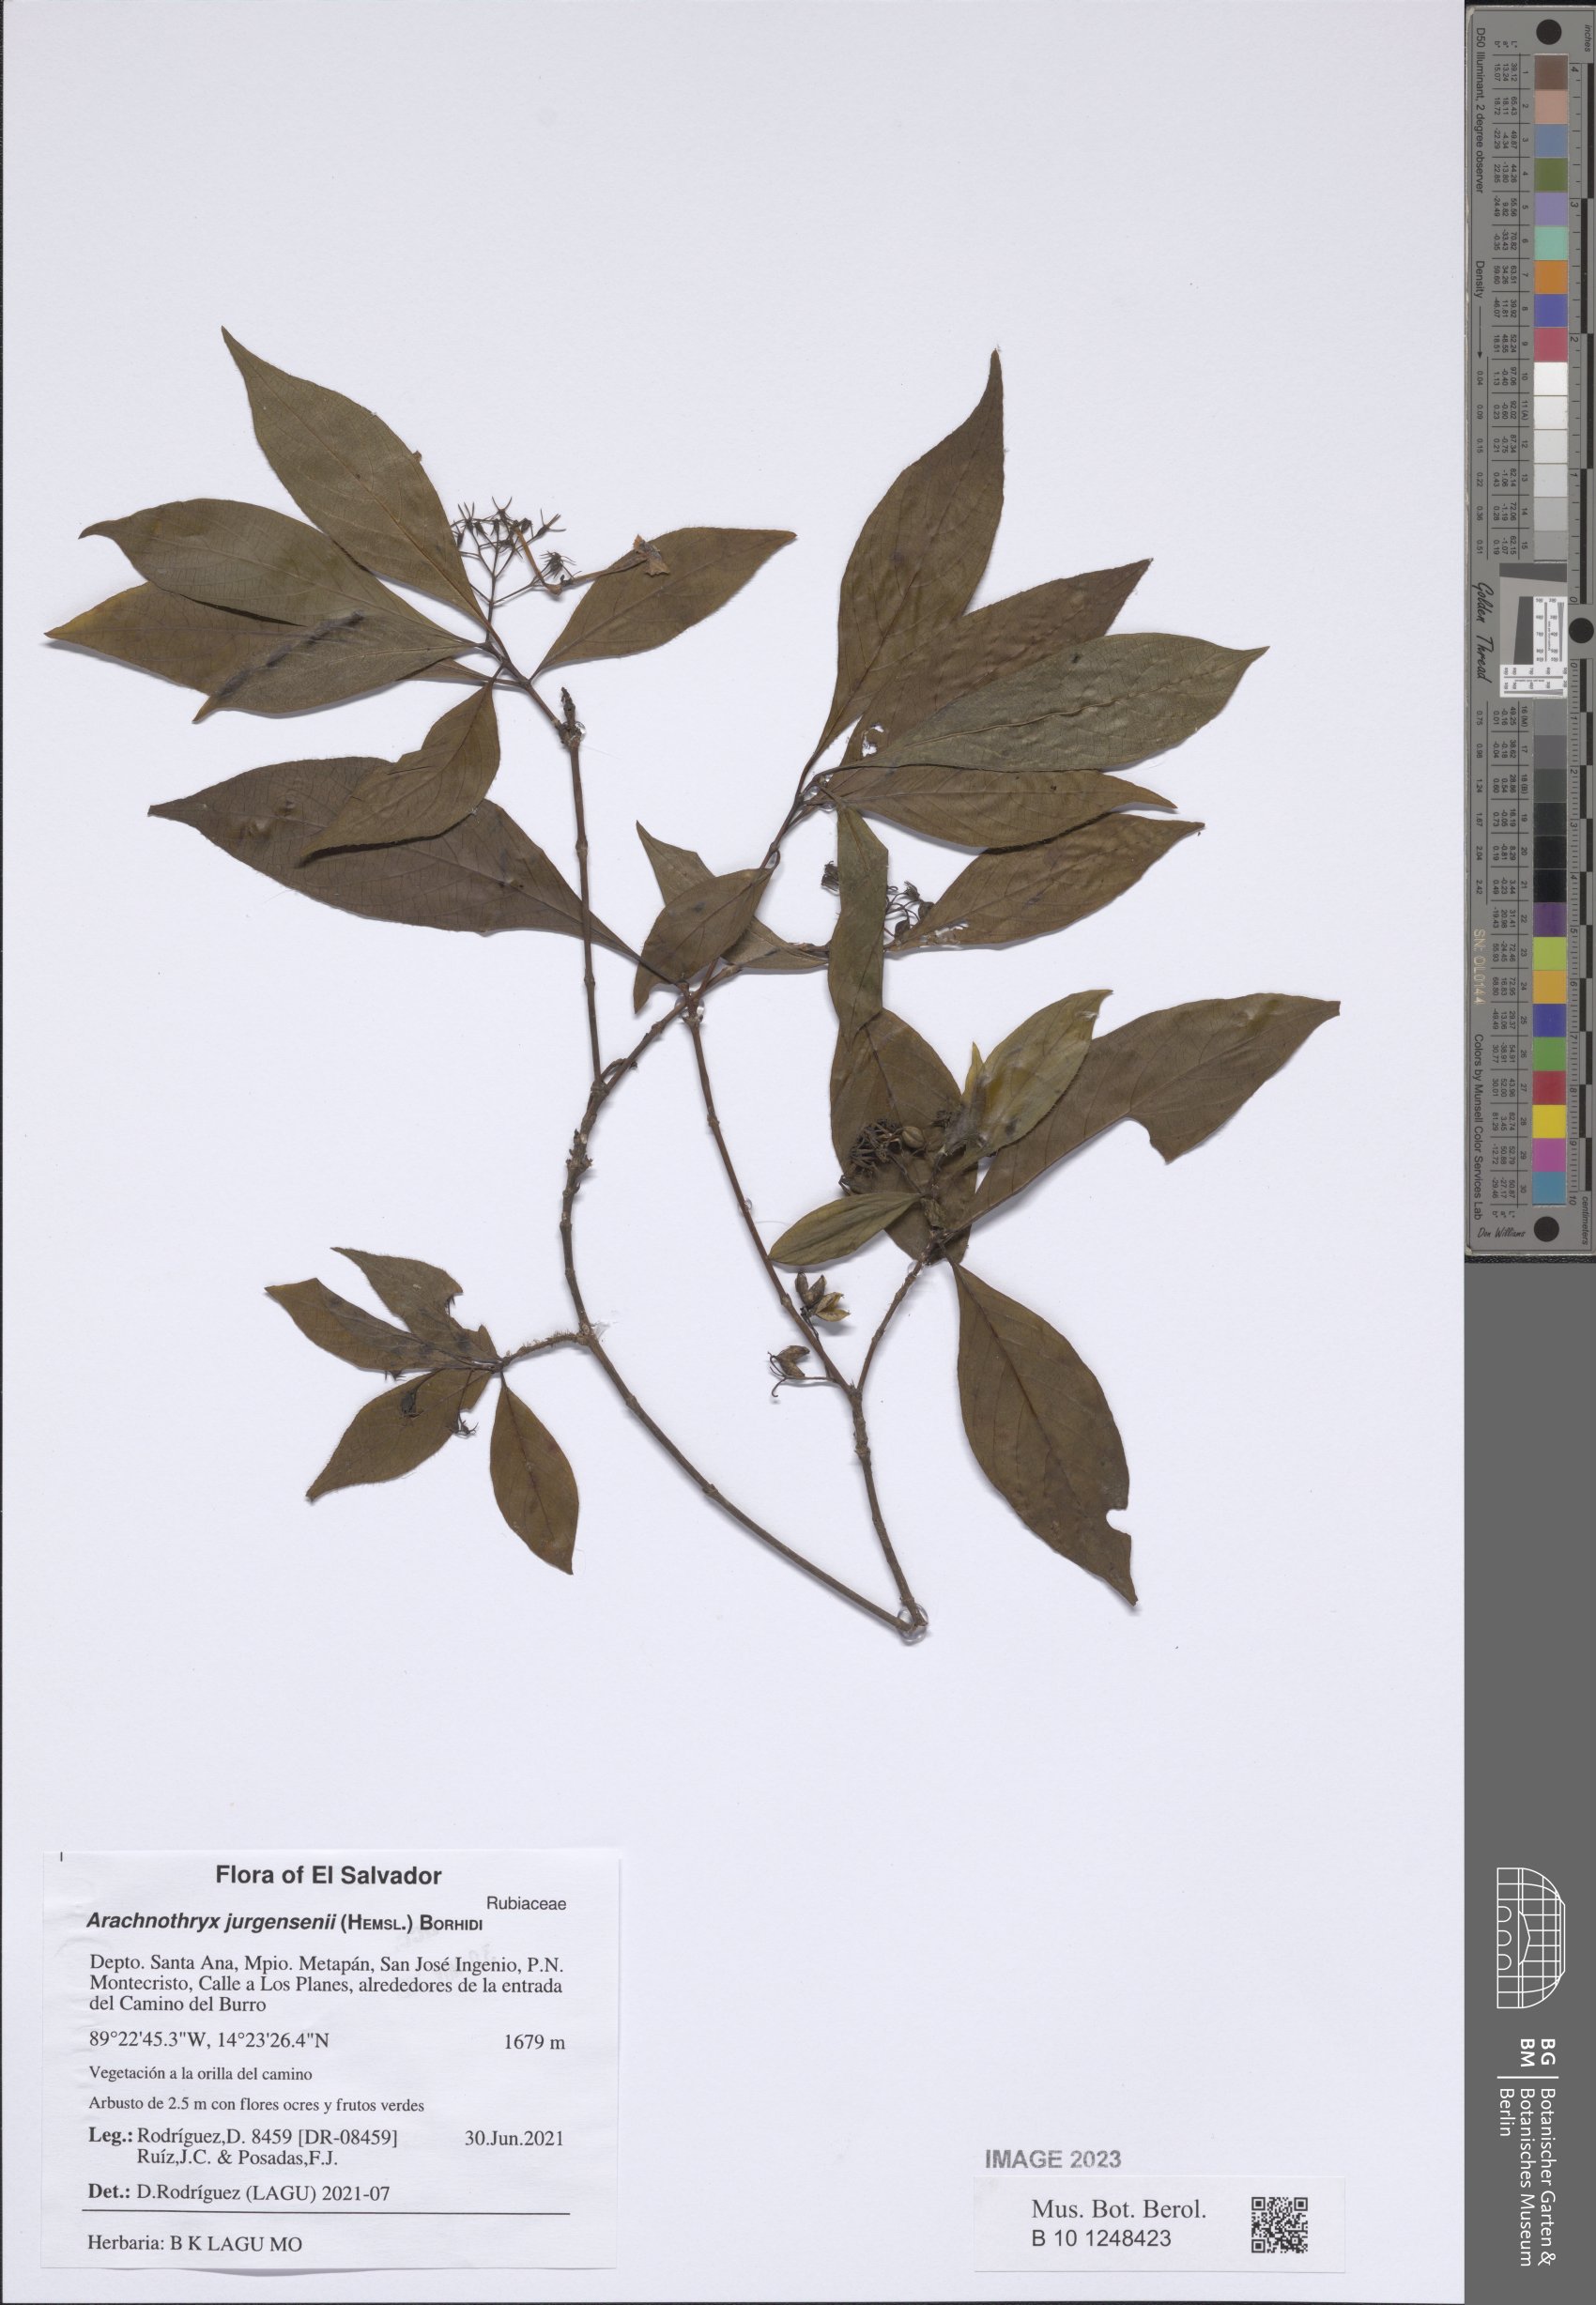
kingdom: Plantae
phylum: Tracheophyta
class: Magnoliopsida
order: Gentianales
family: Rubiaceae
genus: Arachnothryx
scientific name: Arachnothryx jurgensenii
